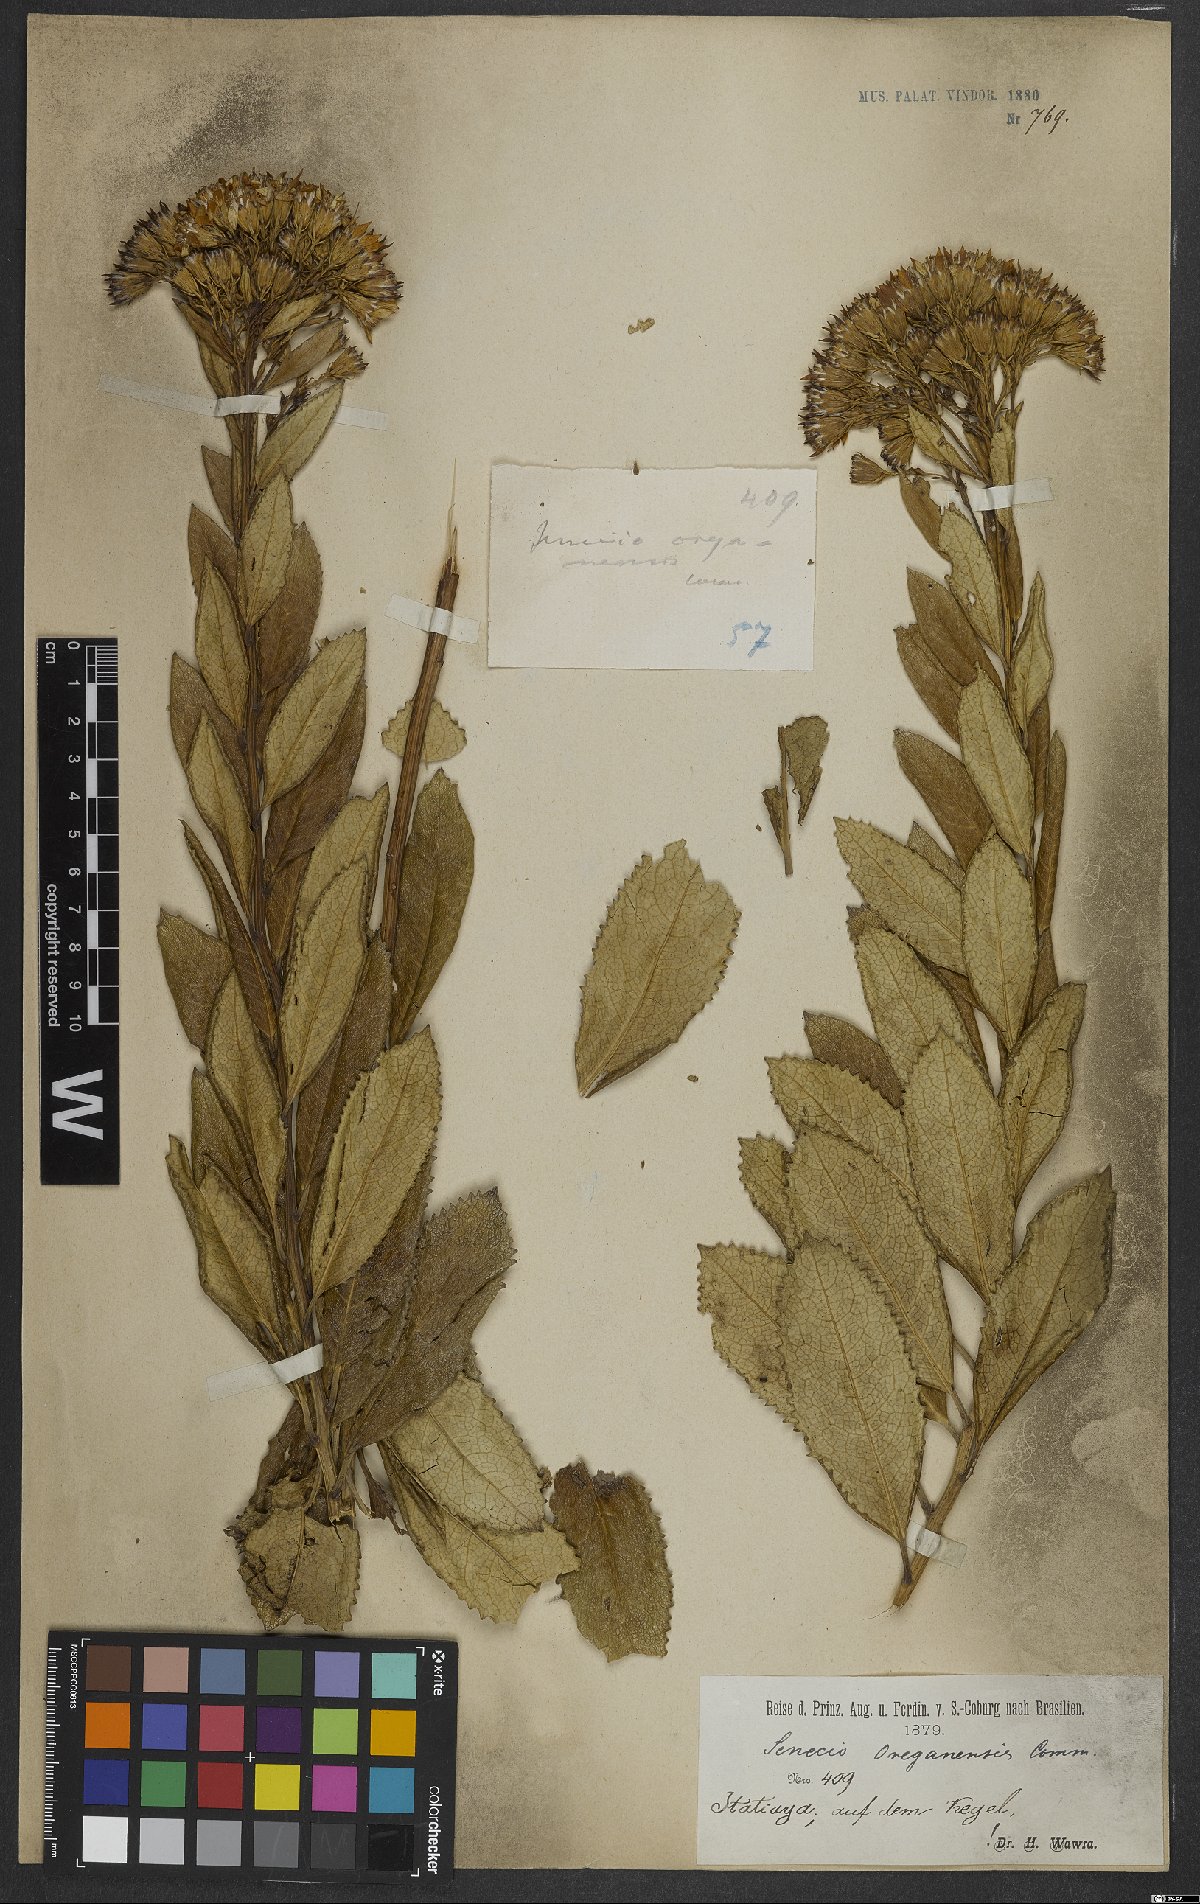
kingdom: Plantae
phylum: Tracheophyta
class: Magnoliopsida
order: Asterales
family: Asteraceae
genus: Graphistylis
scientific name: Graphistylis organensis
